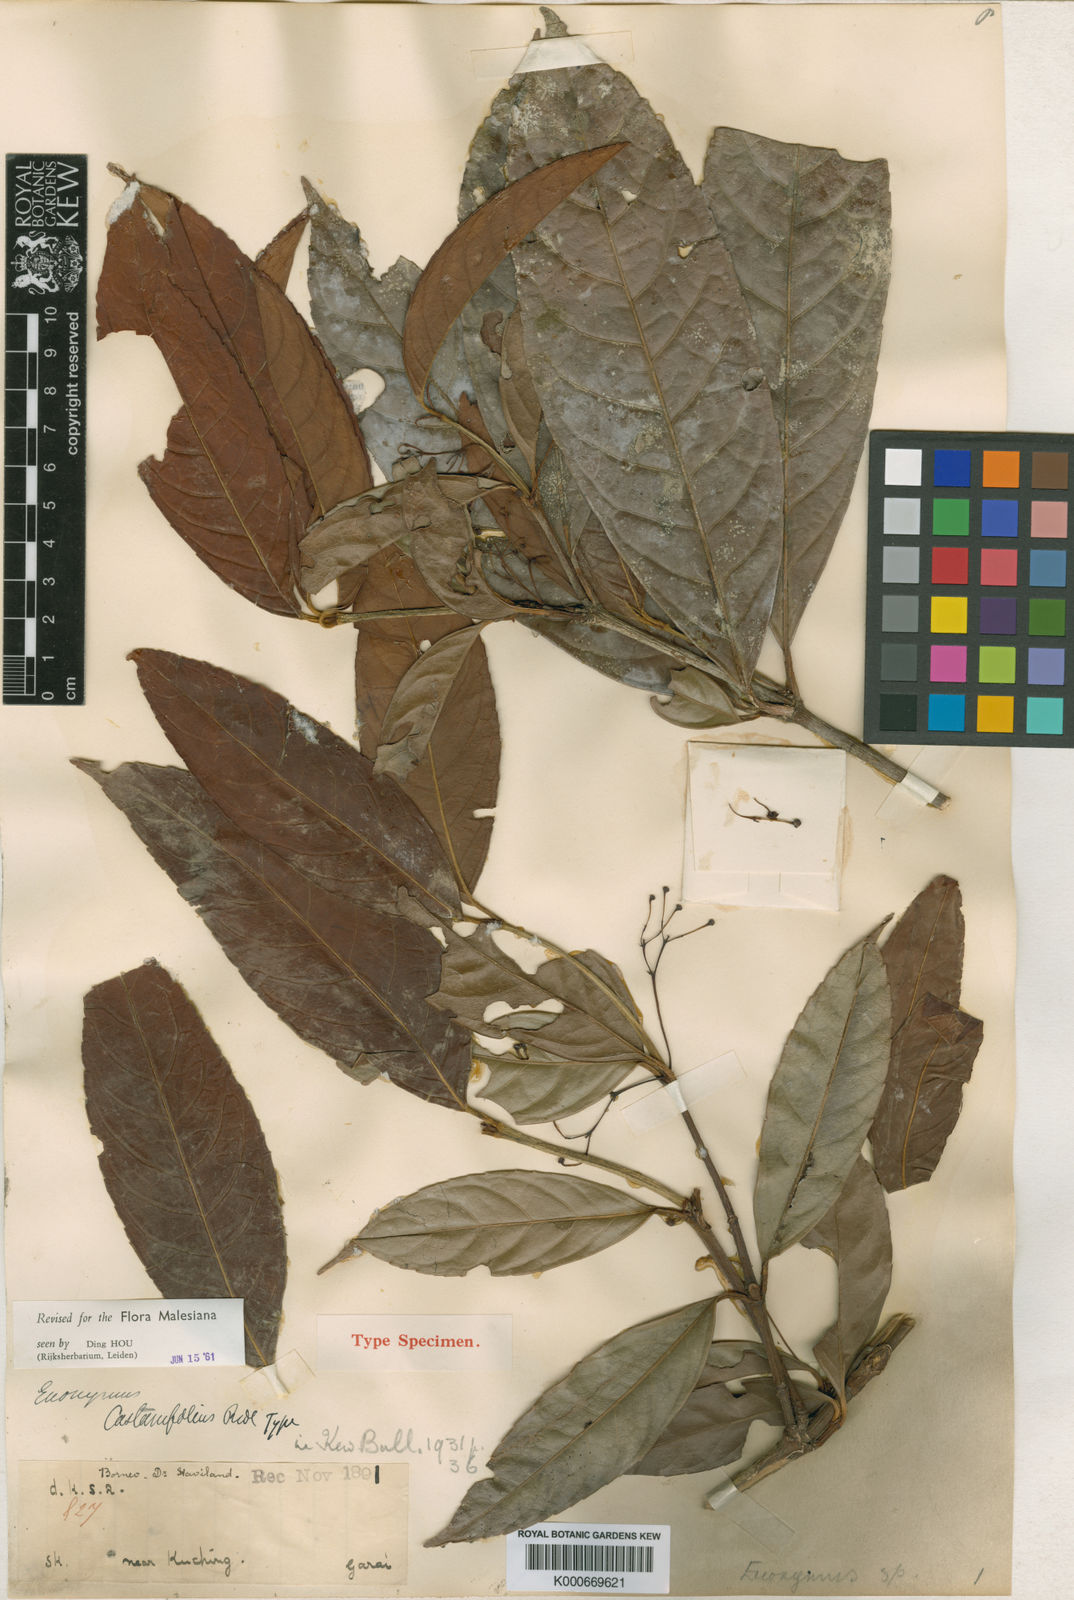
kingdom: Plantae
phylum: Tracheophyta
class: Magnoliopsida
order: Celastrales
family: Celastraceae
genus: Euonymus
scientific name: Euonymus castaneifolius
